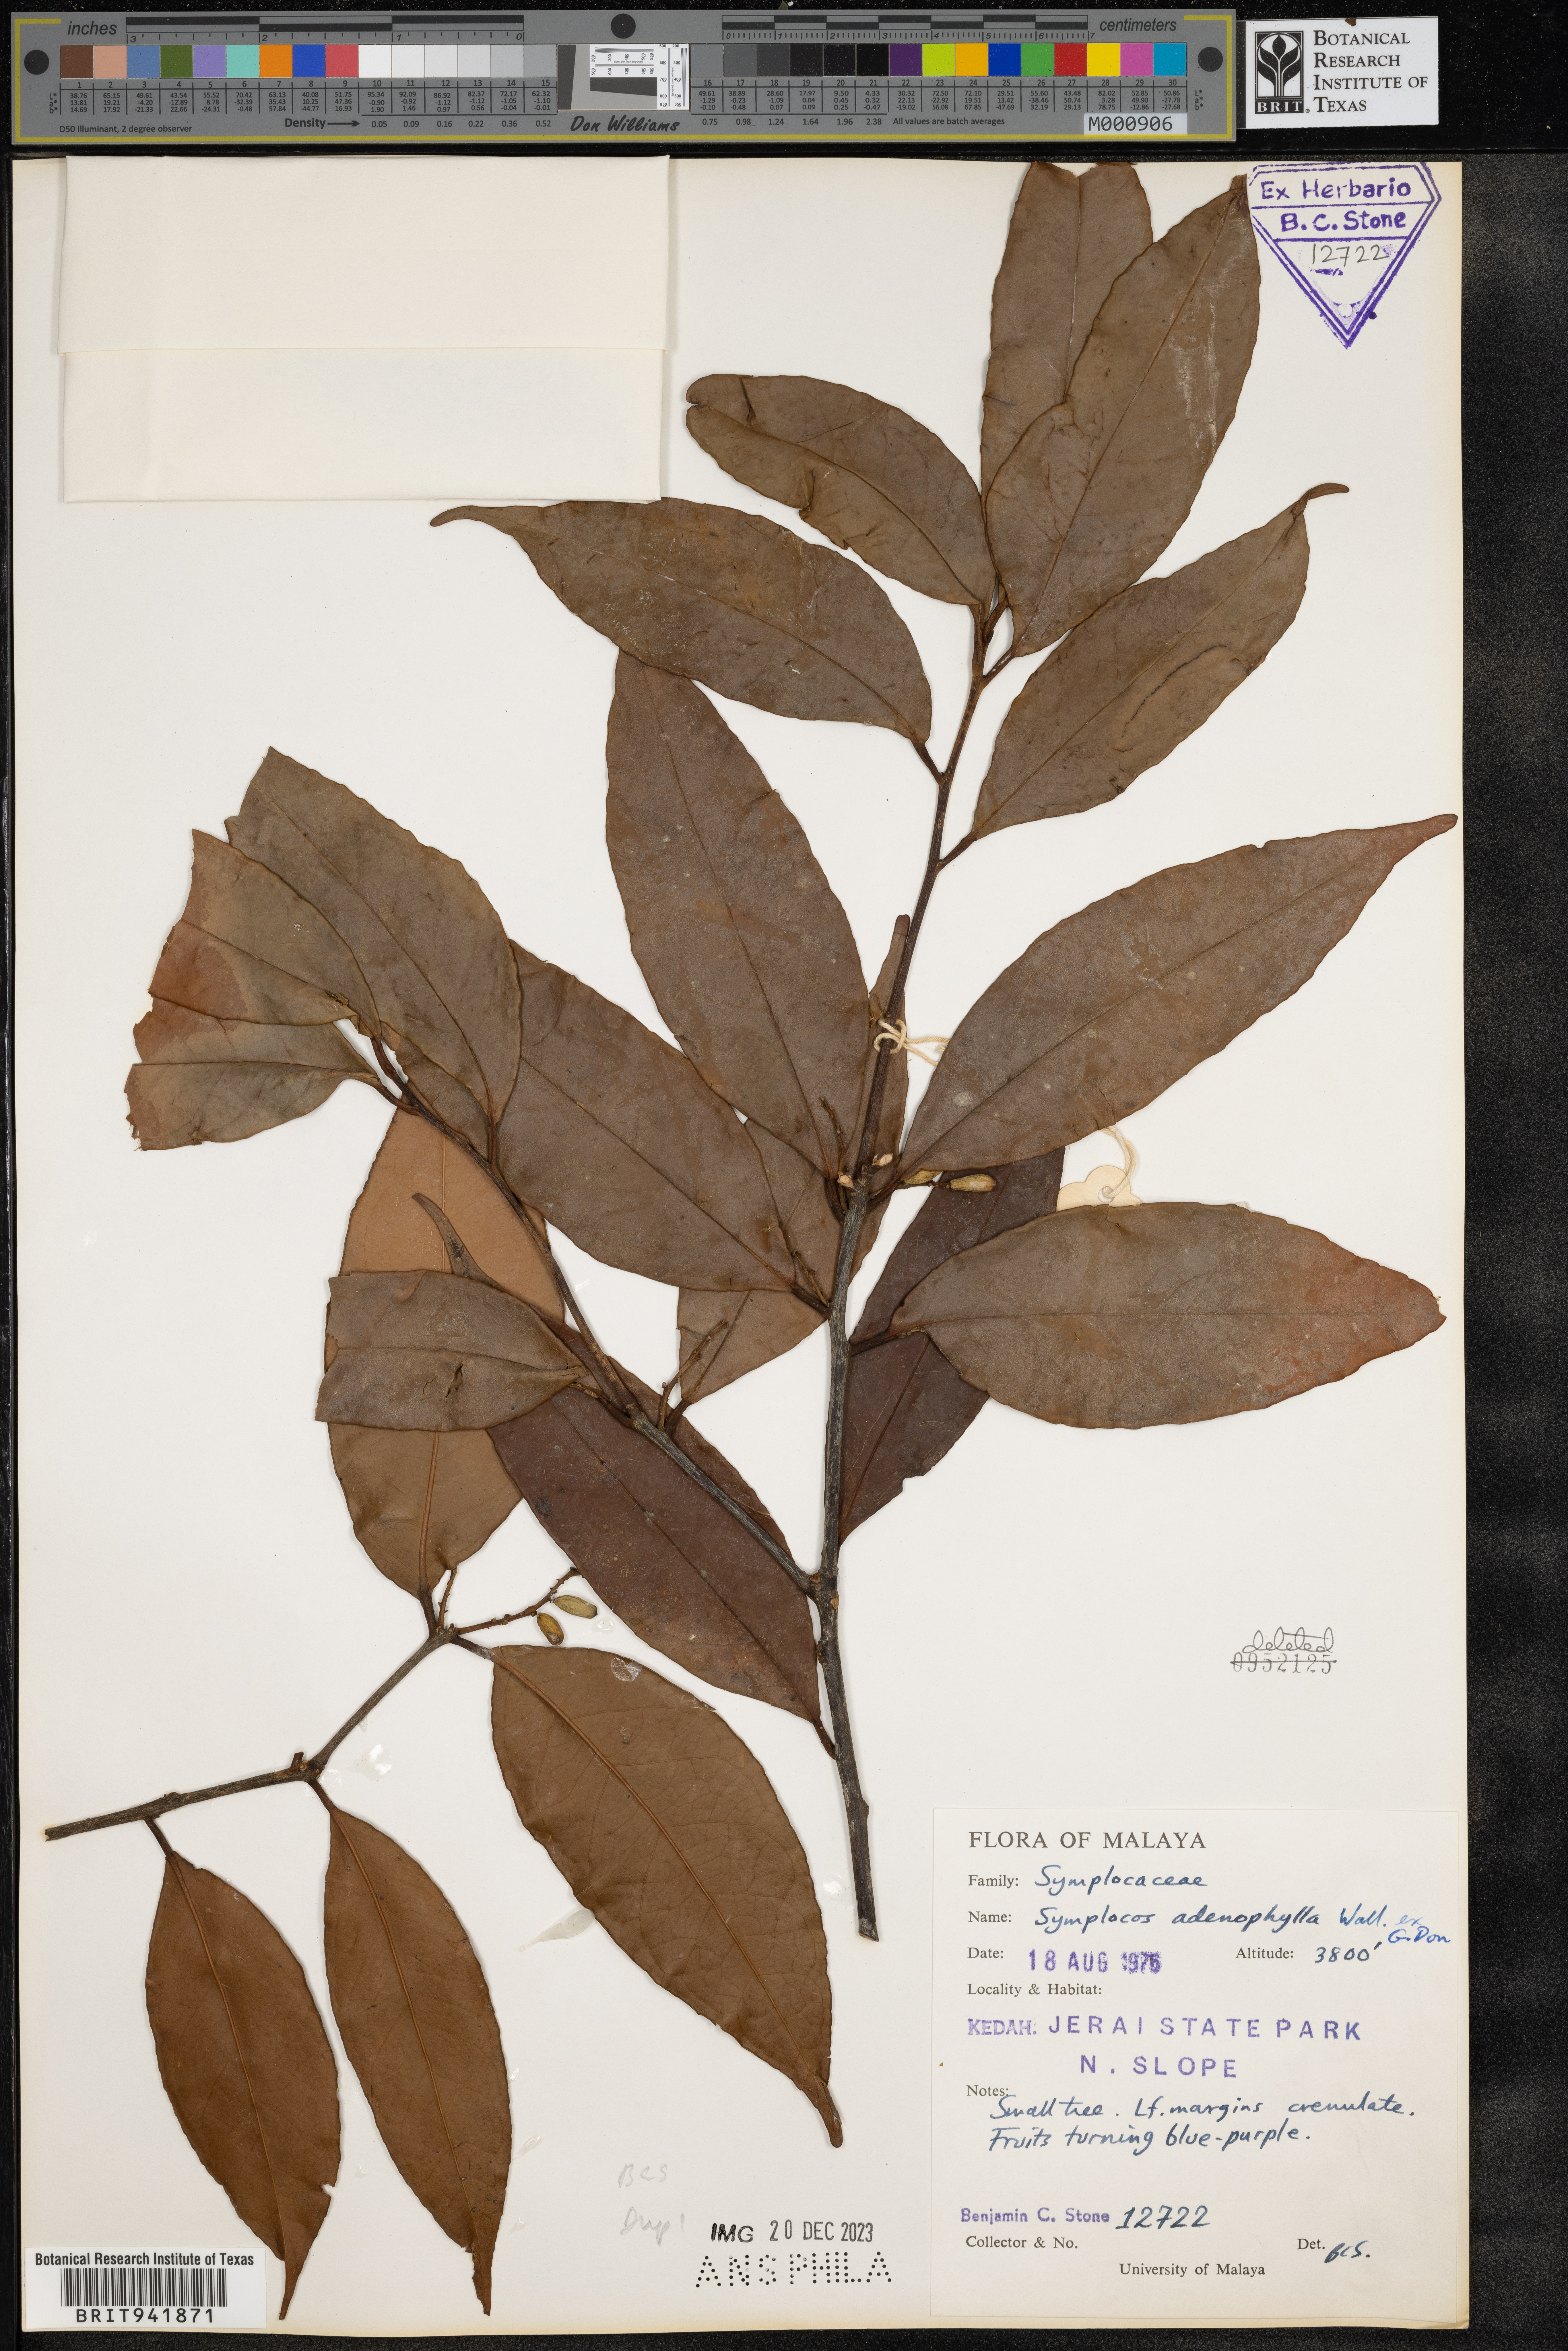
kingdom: Plantae
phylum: Tracheophyta
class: Magnoliopsida
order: Ericales
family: Symplocaceae
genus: Symplocos
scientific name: Symplocos
